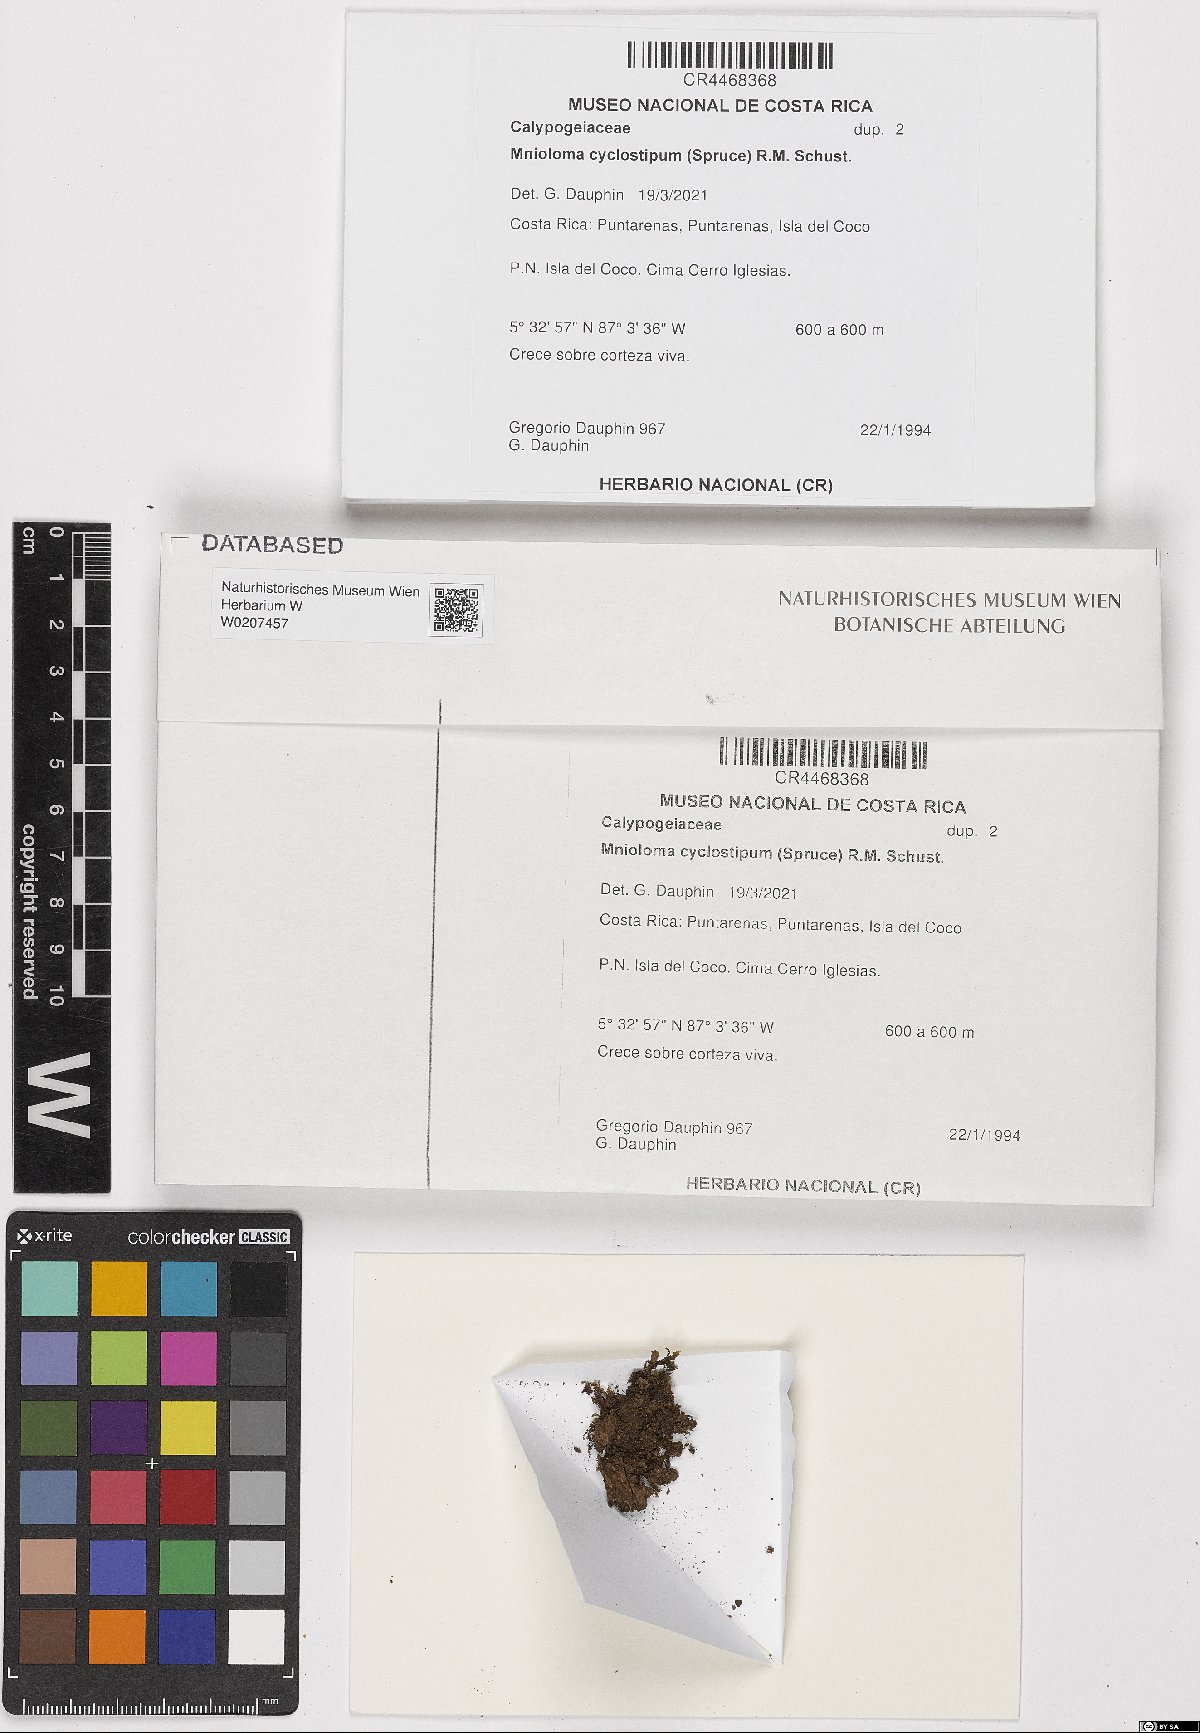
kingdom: Plantae
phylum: Marchantiophyta
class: Jungermanniopsida
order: Jungermanniales
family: Calypogeiaceae
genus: Mnioloma
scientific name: Mnioloma cyclostipum
